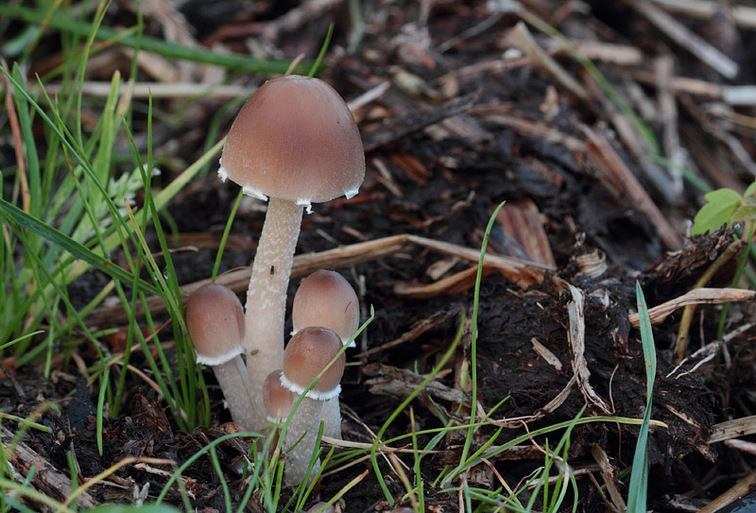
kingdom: Fungi
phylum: Basidiomycota
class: Agaricomycetes
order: Agaricales
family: Psathyrellaceae
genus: Coprinopsis
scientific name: Coprinopsis marcescibilis
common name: ruderat-blækhat
